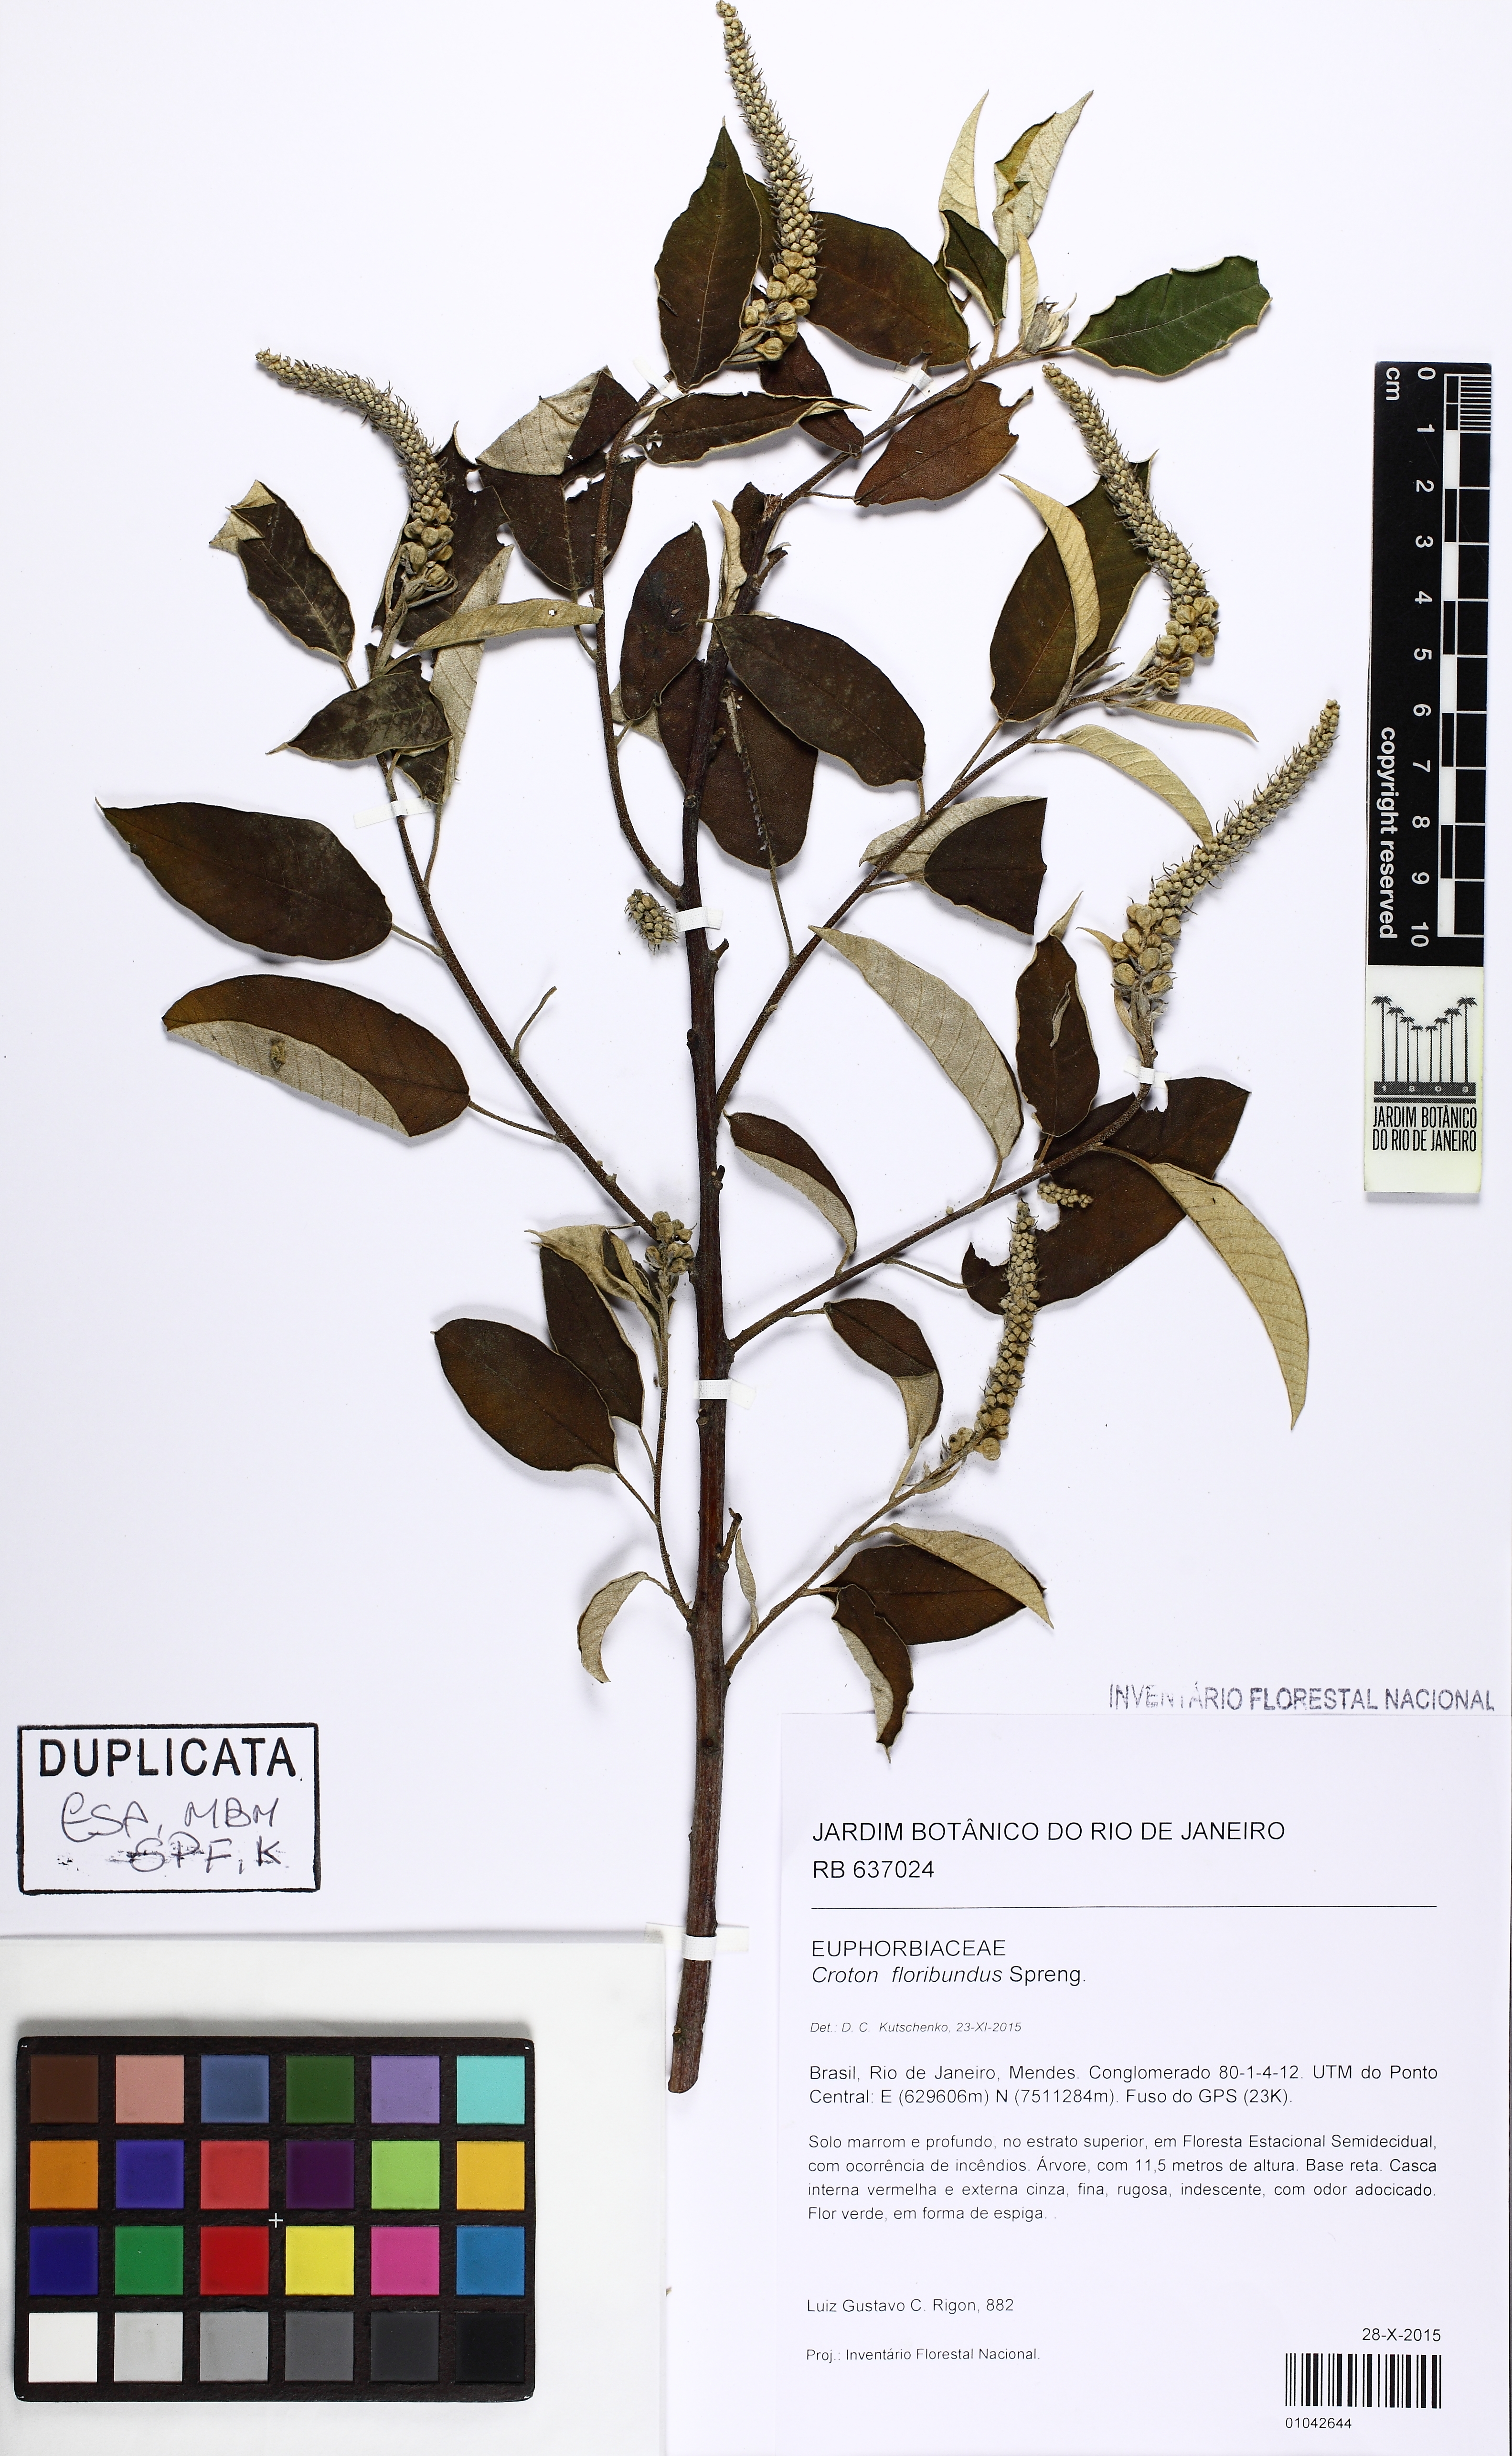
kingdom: Plantae
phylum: Tracheophyta
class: Magnoliopsida
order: Malpighiales
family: Euphorbiaceae
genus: Croton
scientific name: Croton floribundus
